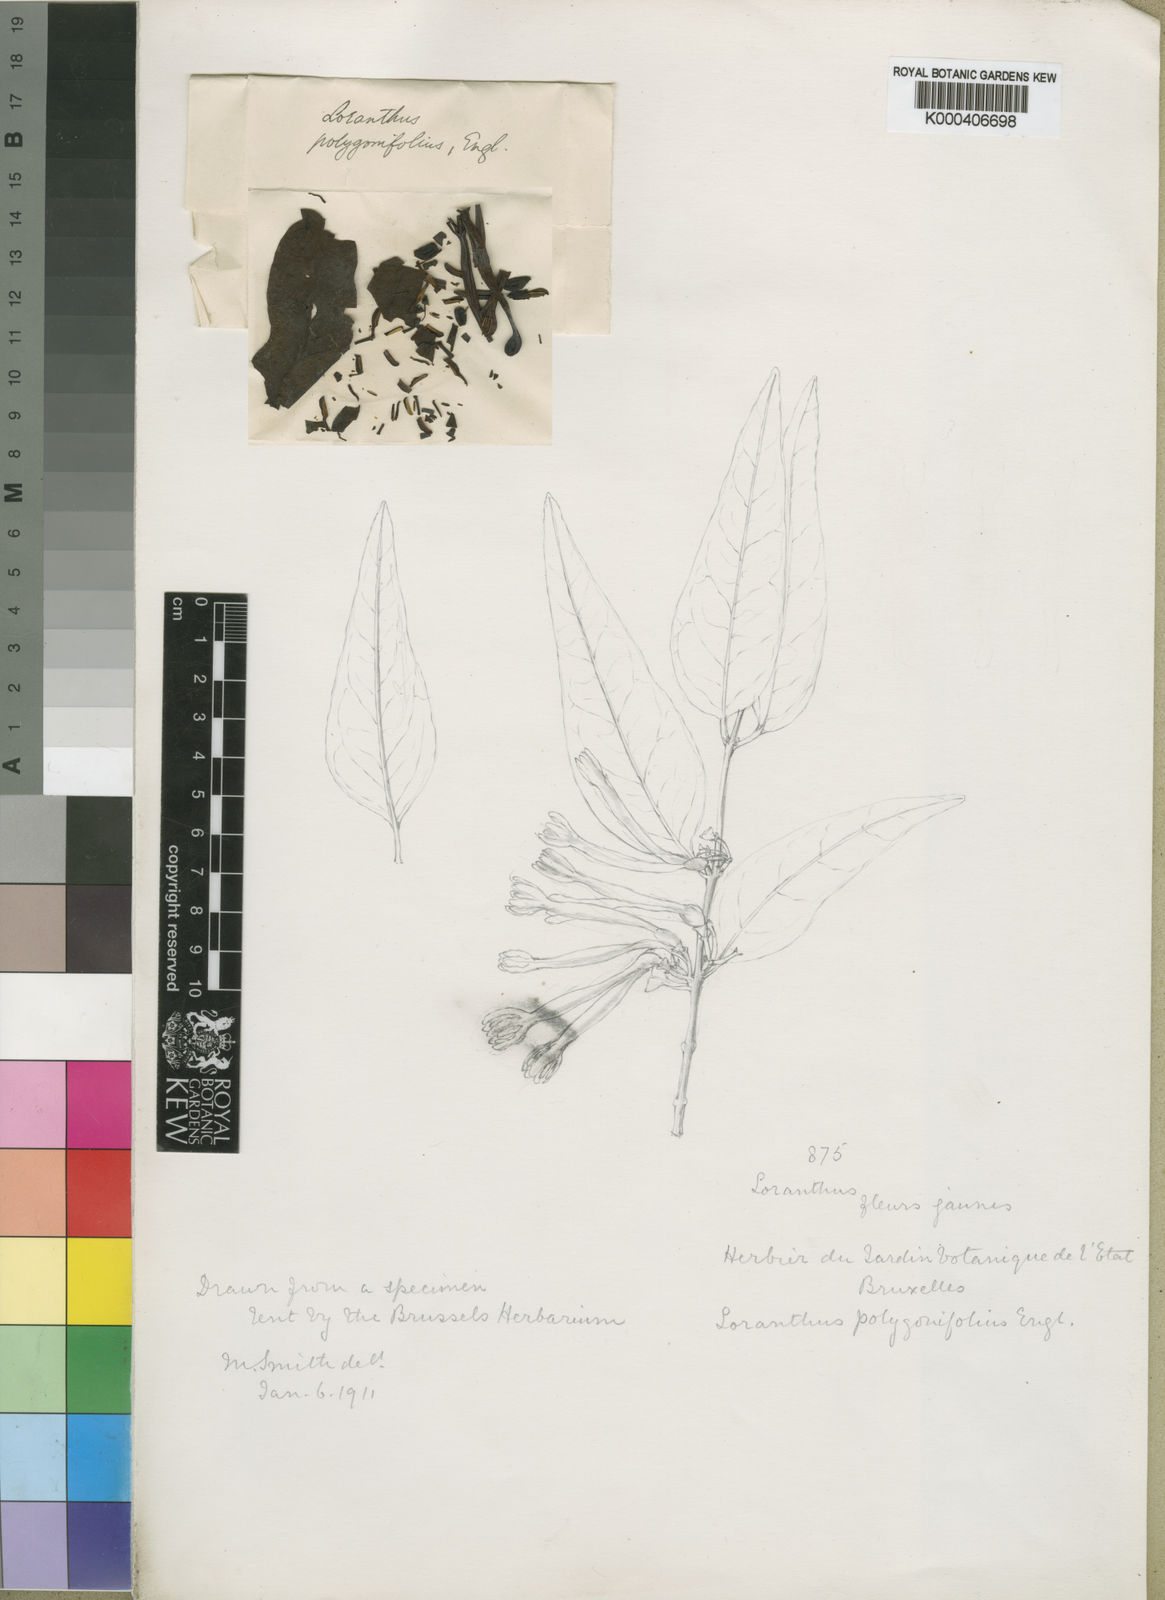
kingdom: Plantae
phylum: Tracheophyta
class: Magnoliopsida
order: Santalales
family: Loranthaceae
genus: Agelanthus
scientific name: Agelanthus polygonifolius
